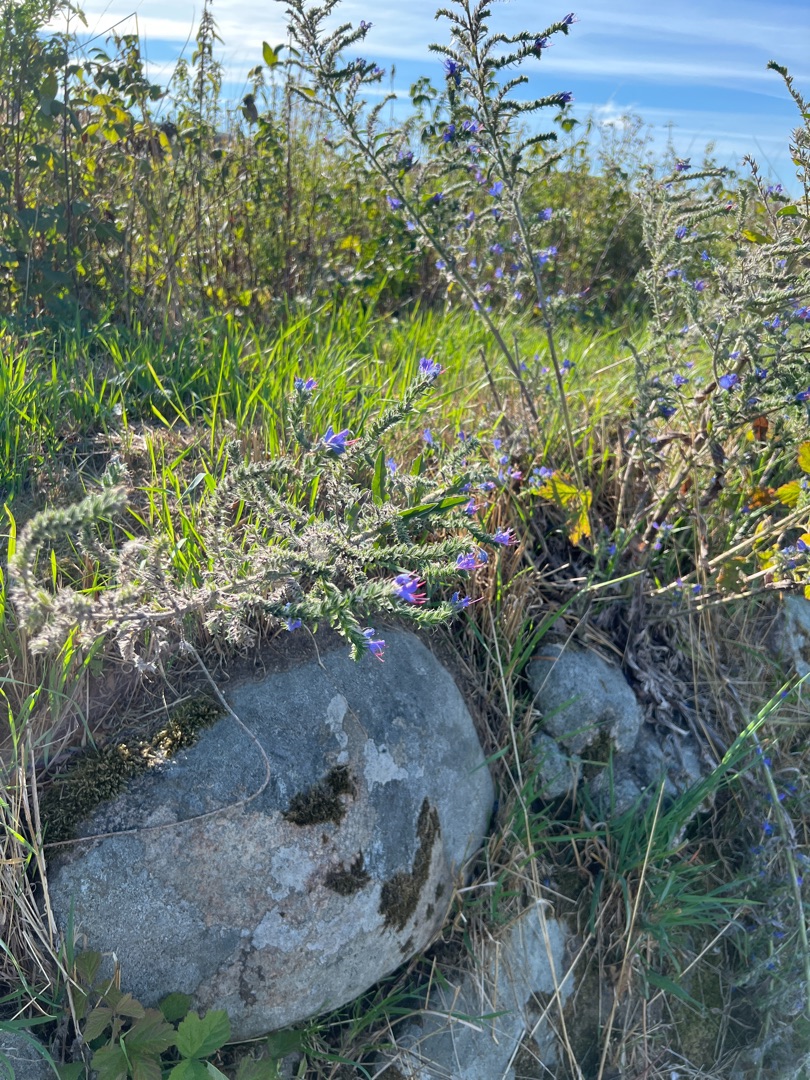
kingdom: Plantae
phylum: Tracheophyta
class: Magnoliopsida
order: Boraginales
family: Boraginaceae
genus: Echium
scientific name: Echium vulgare
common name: Slangehoved
